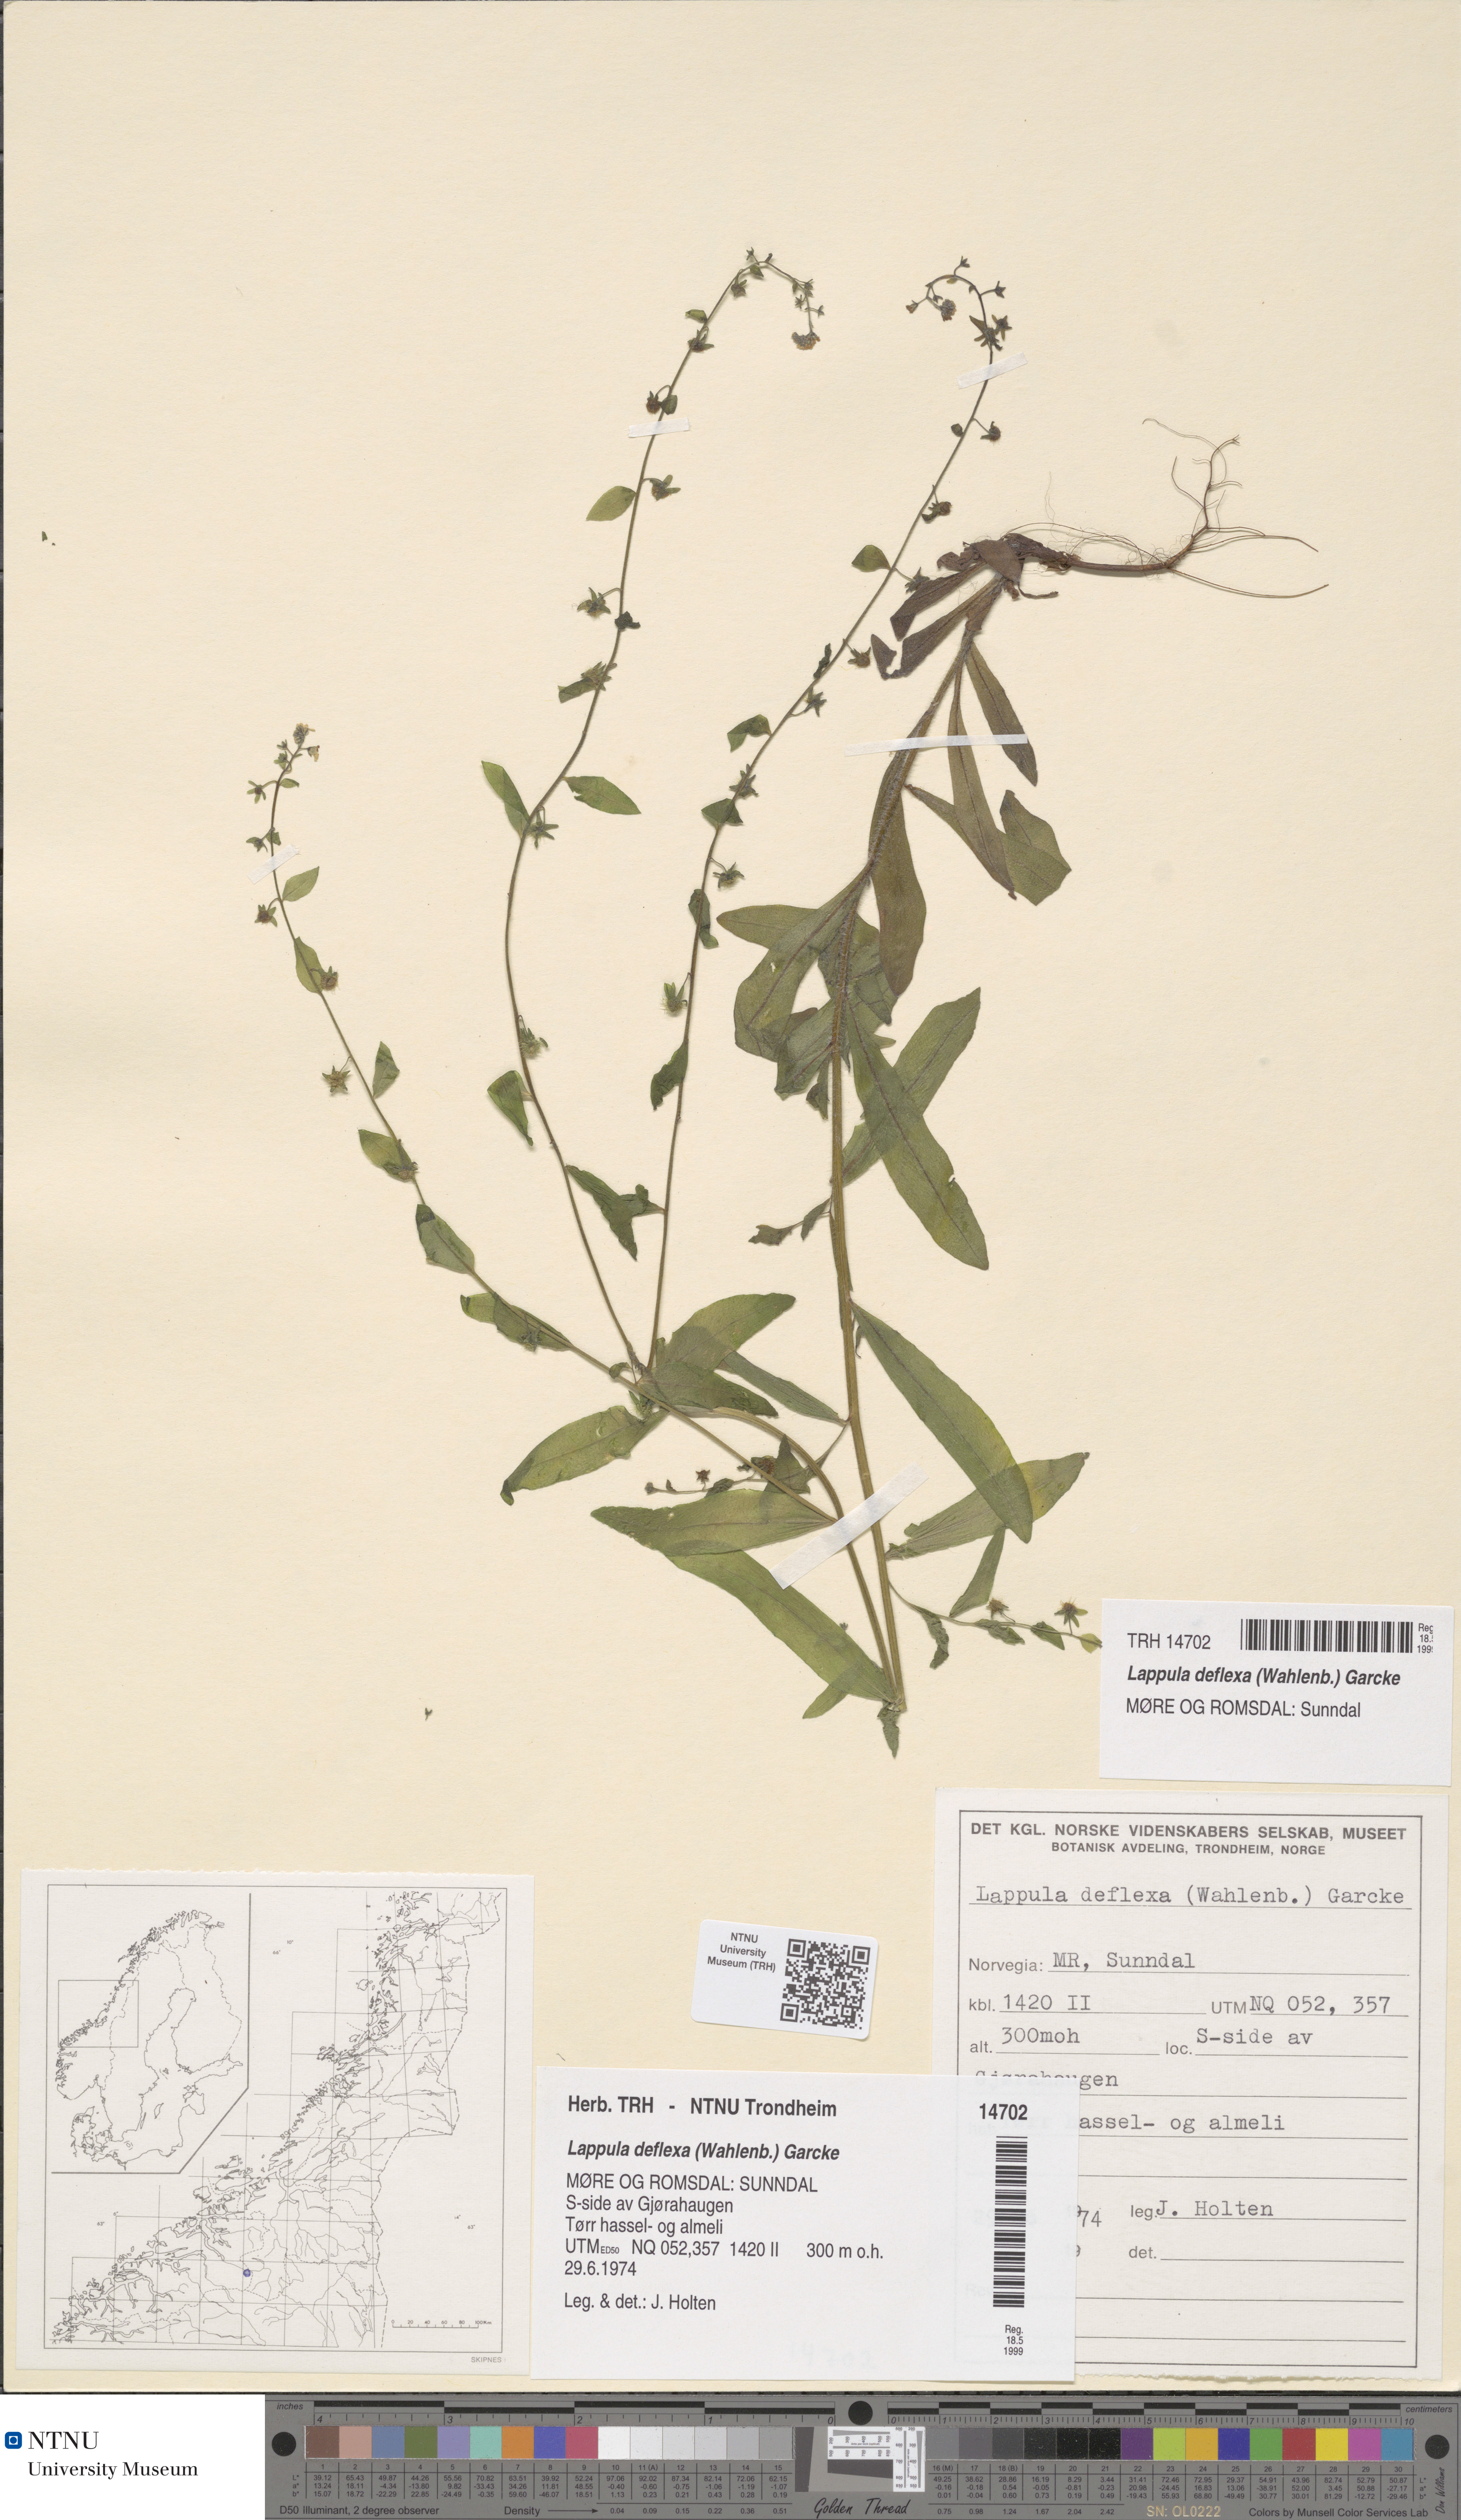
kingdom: Plantae
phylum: Tracheophyta
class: Magnoliopsida
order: Boraginales
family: Boraginaceae
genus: Hackelia
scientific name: Hackelia deflexa
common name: Nodding stickseed
